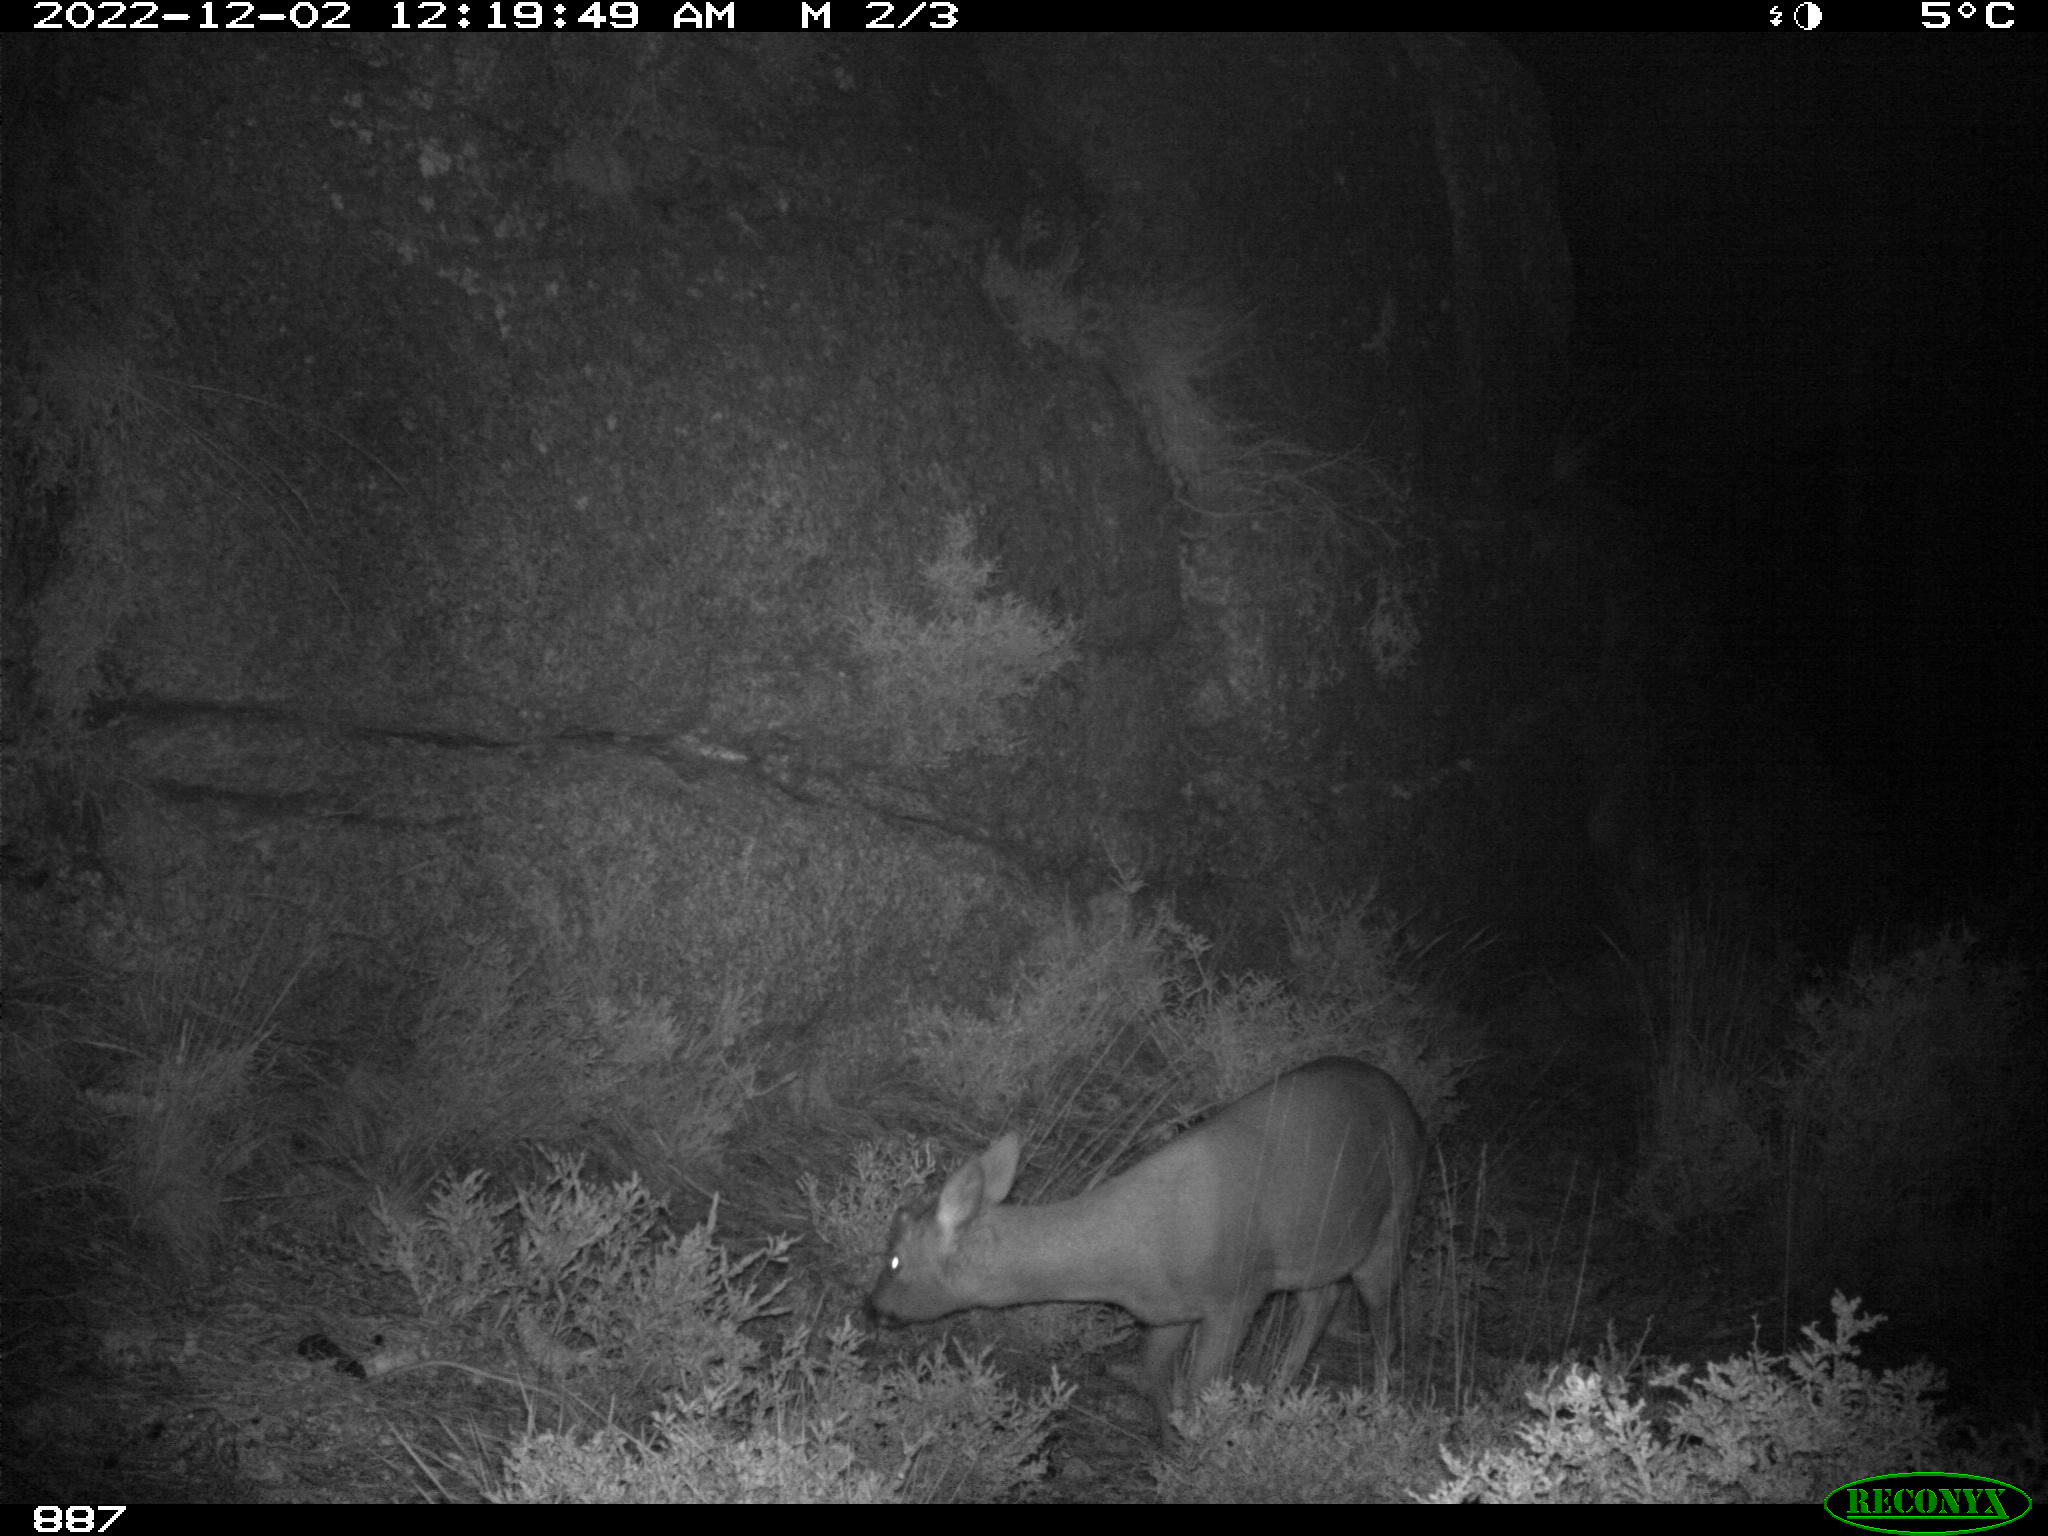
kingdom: Animalia
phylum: Chordata
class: Mammalia
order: Artiodactyla
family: Cervidae
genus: Capreolus
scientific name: Capreolus capreolus
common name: Western roe deer
